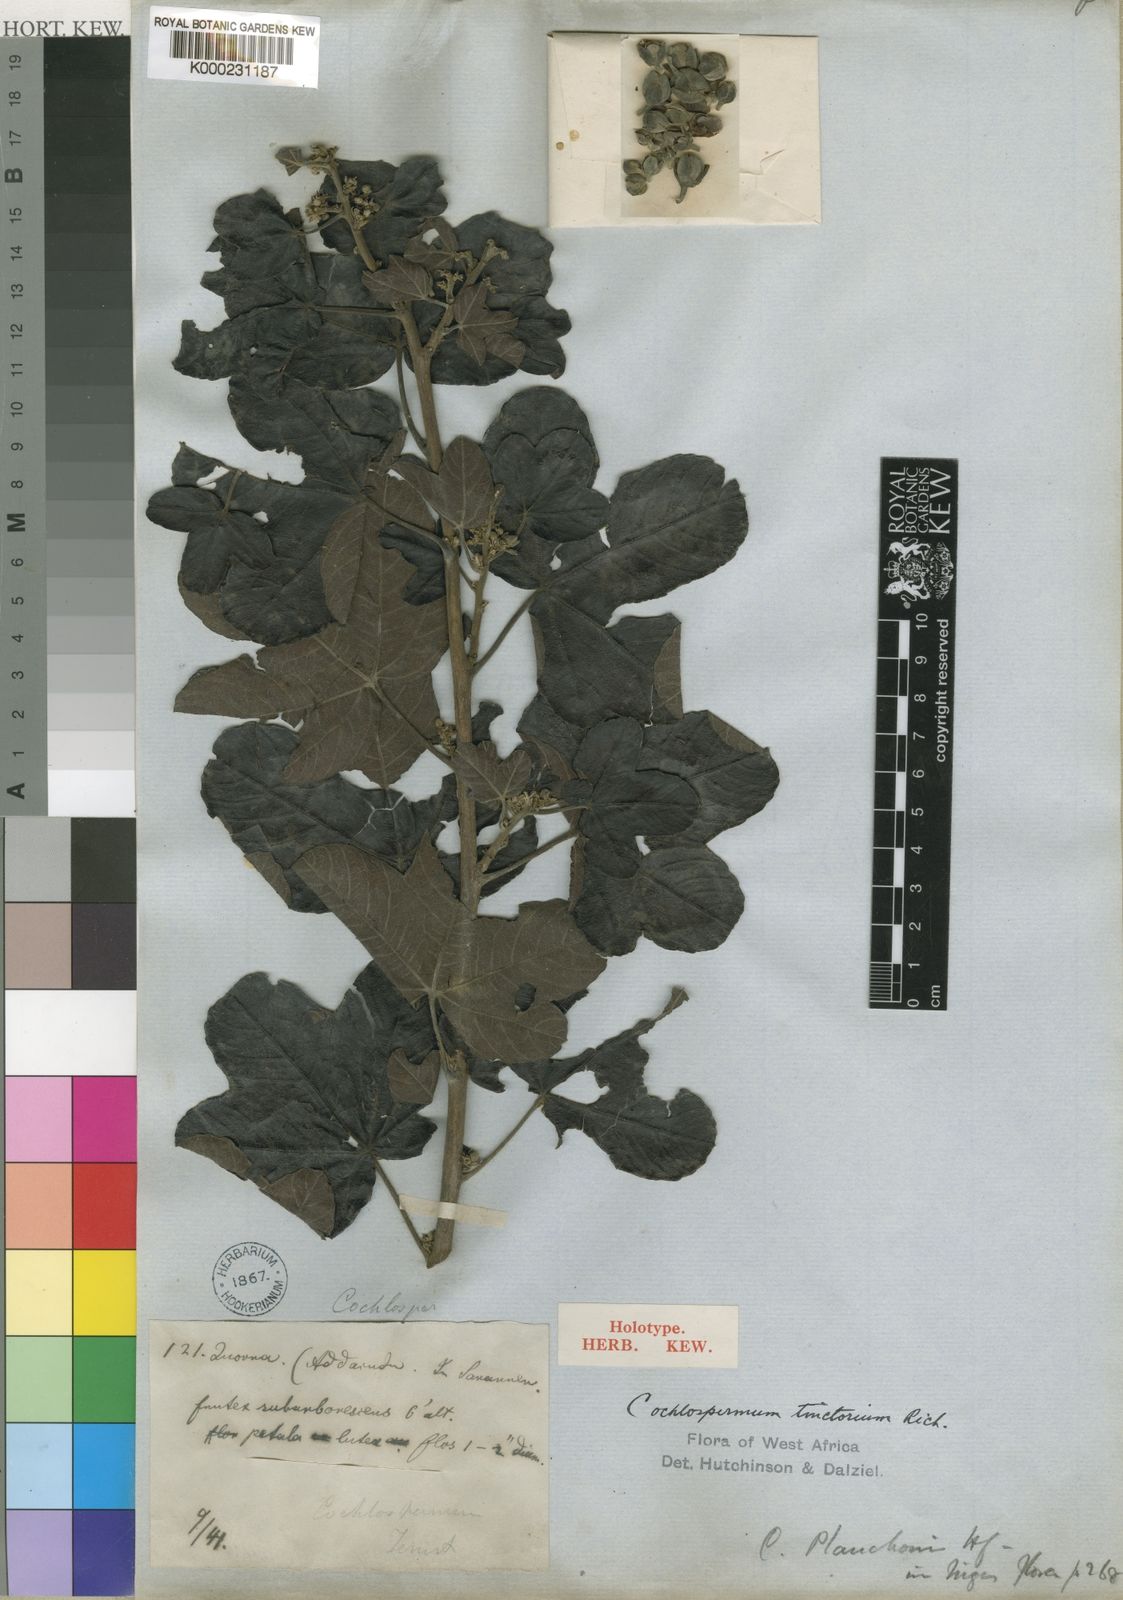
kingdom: Plantae
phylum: Tracheophyta
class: Magnoliopsida
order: Malvales
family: Cochlospermaceae
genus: Cochlospermum
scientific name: Cochlospermum planchonii
